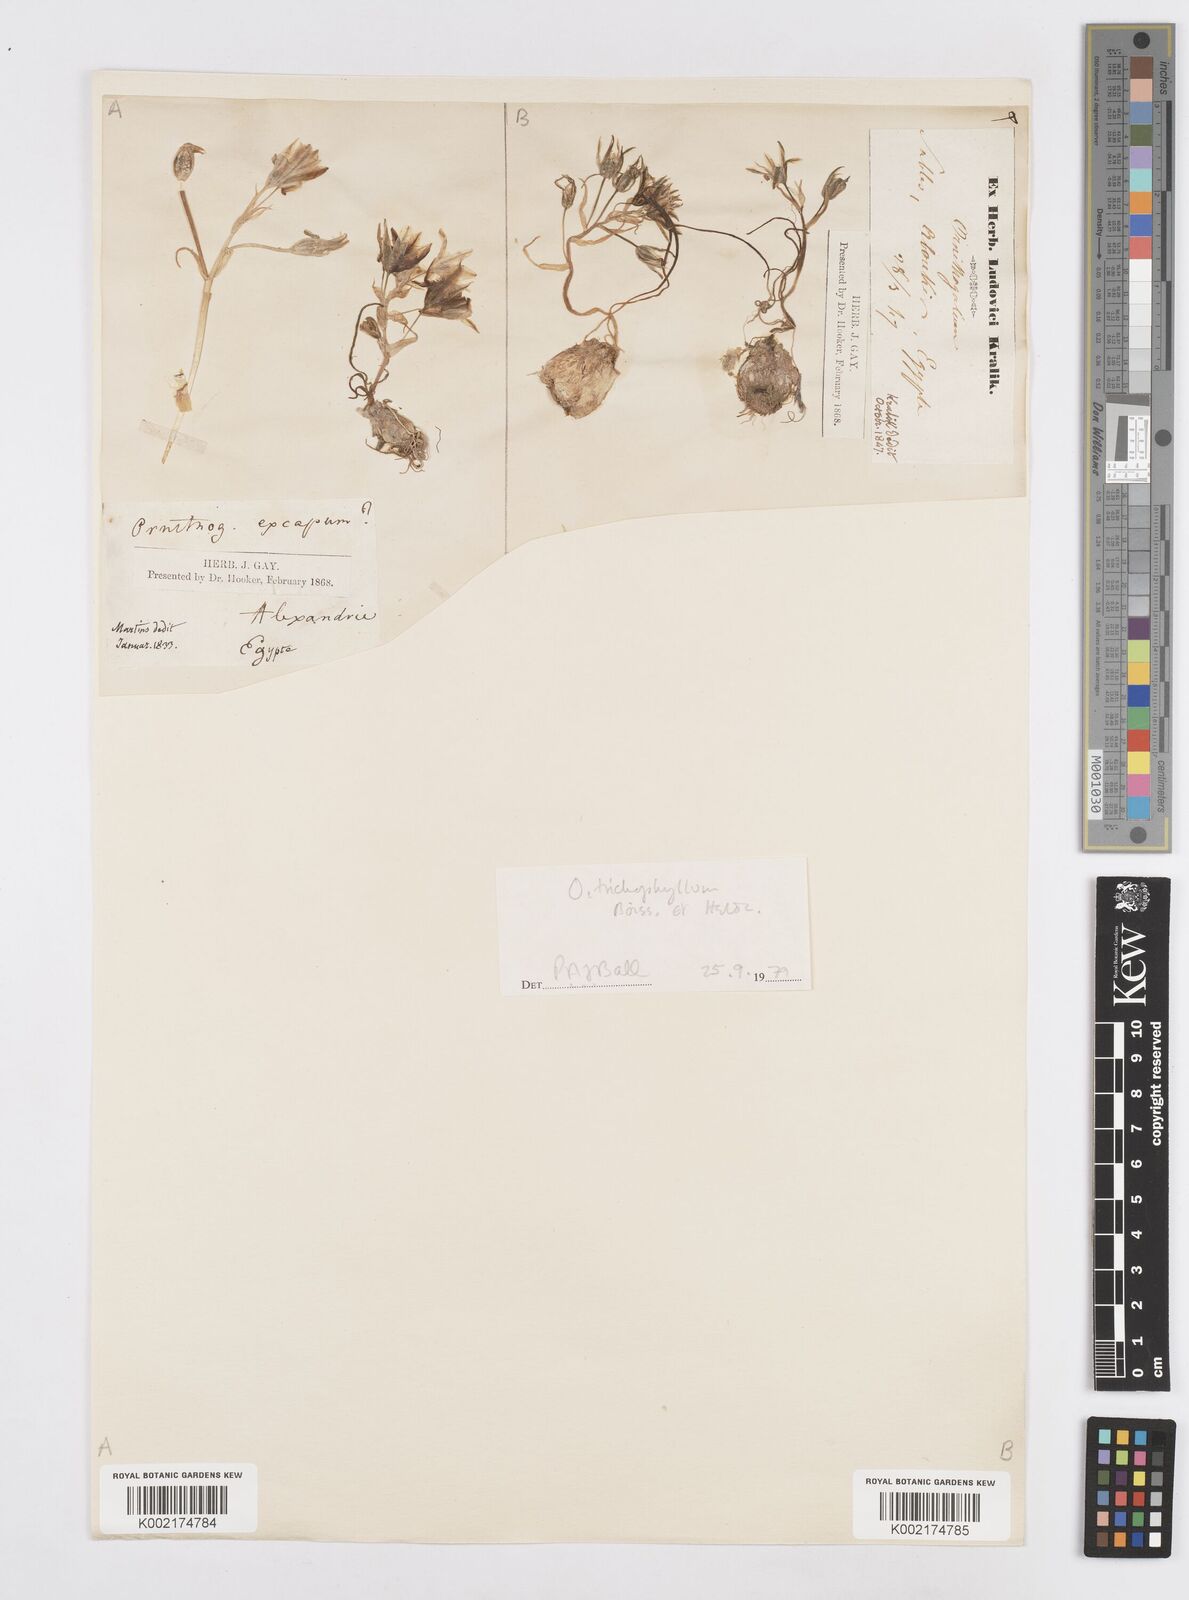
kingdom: Plantae
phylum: Tracheophyta
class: Liliopsida
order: Asparagales
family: Asparagaceae
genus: Ornithogalum
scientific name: Ornithogalum trichophyllum
